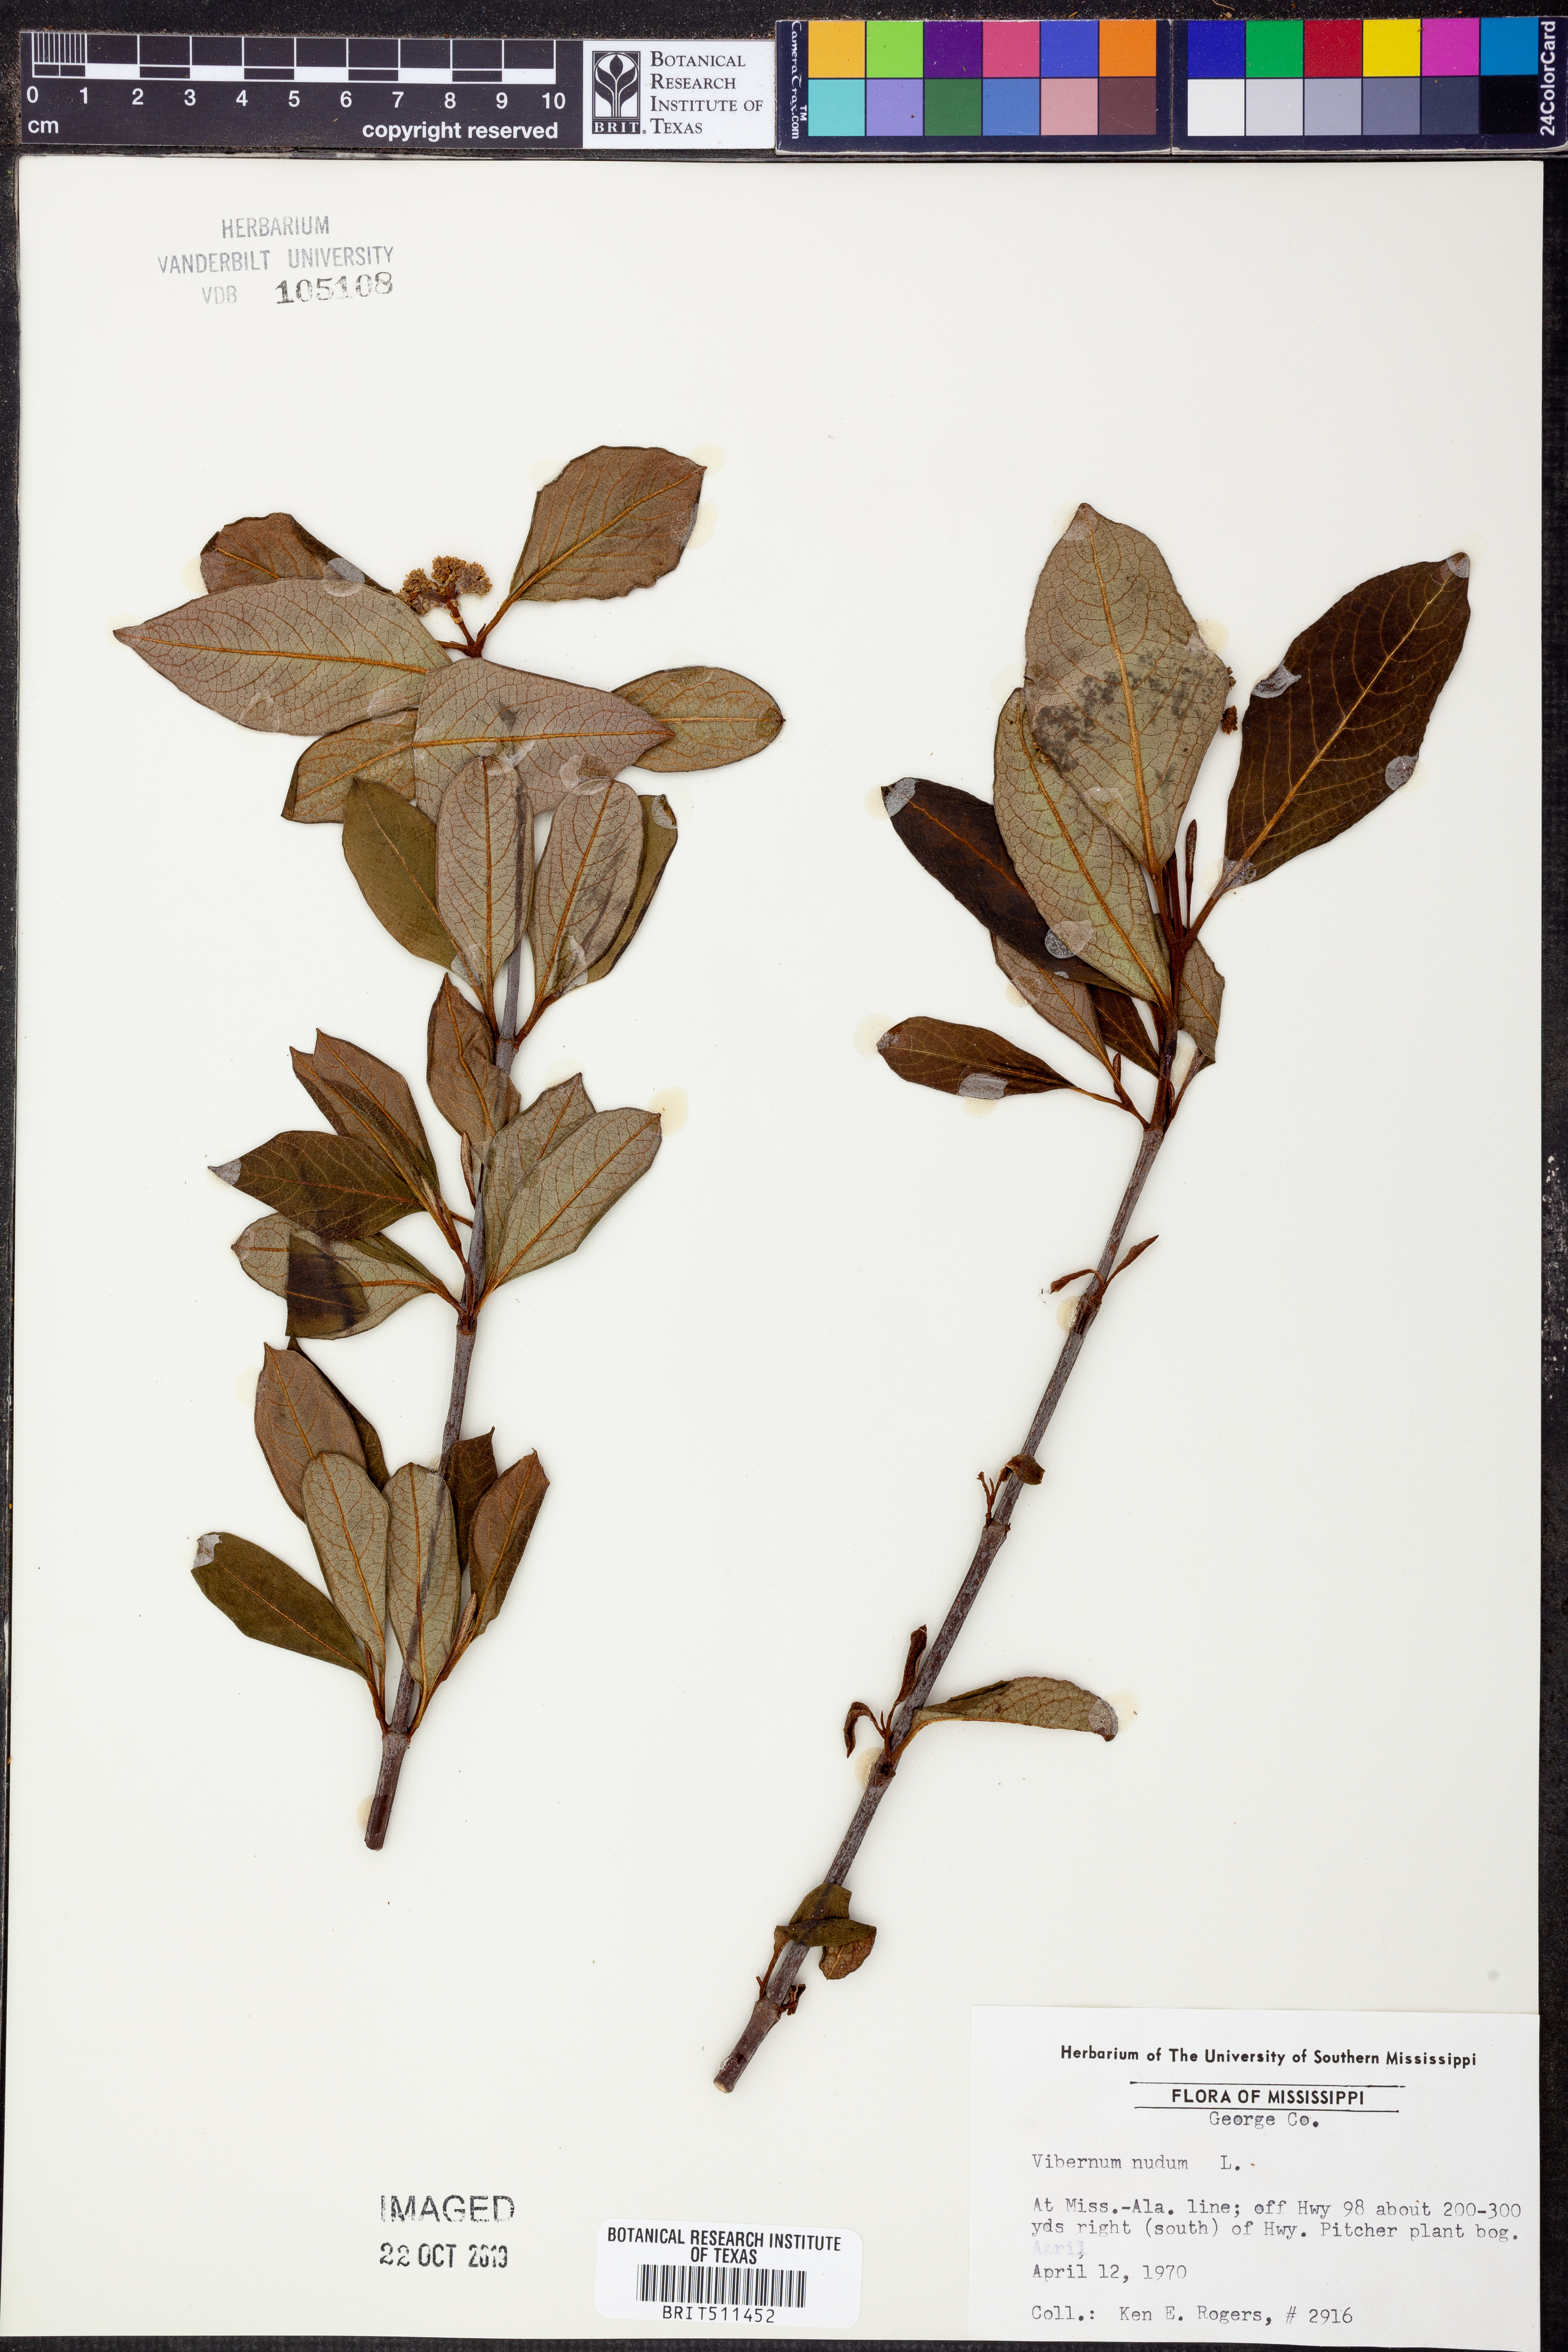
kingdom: Plantae
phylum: Tracheophyta
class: Magnoliopsida
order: Dipsacales
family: Viburnaceae
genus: Viburnum
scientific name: Viburnum nudum
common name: Possum haw
